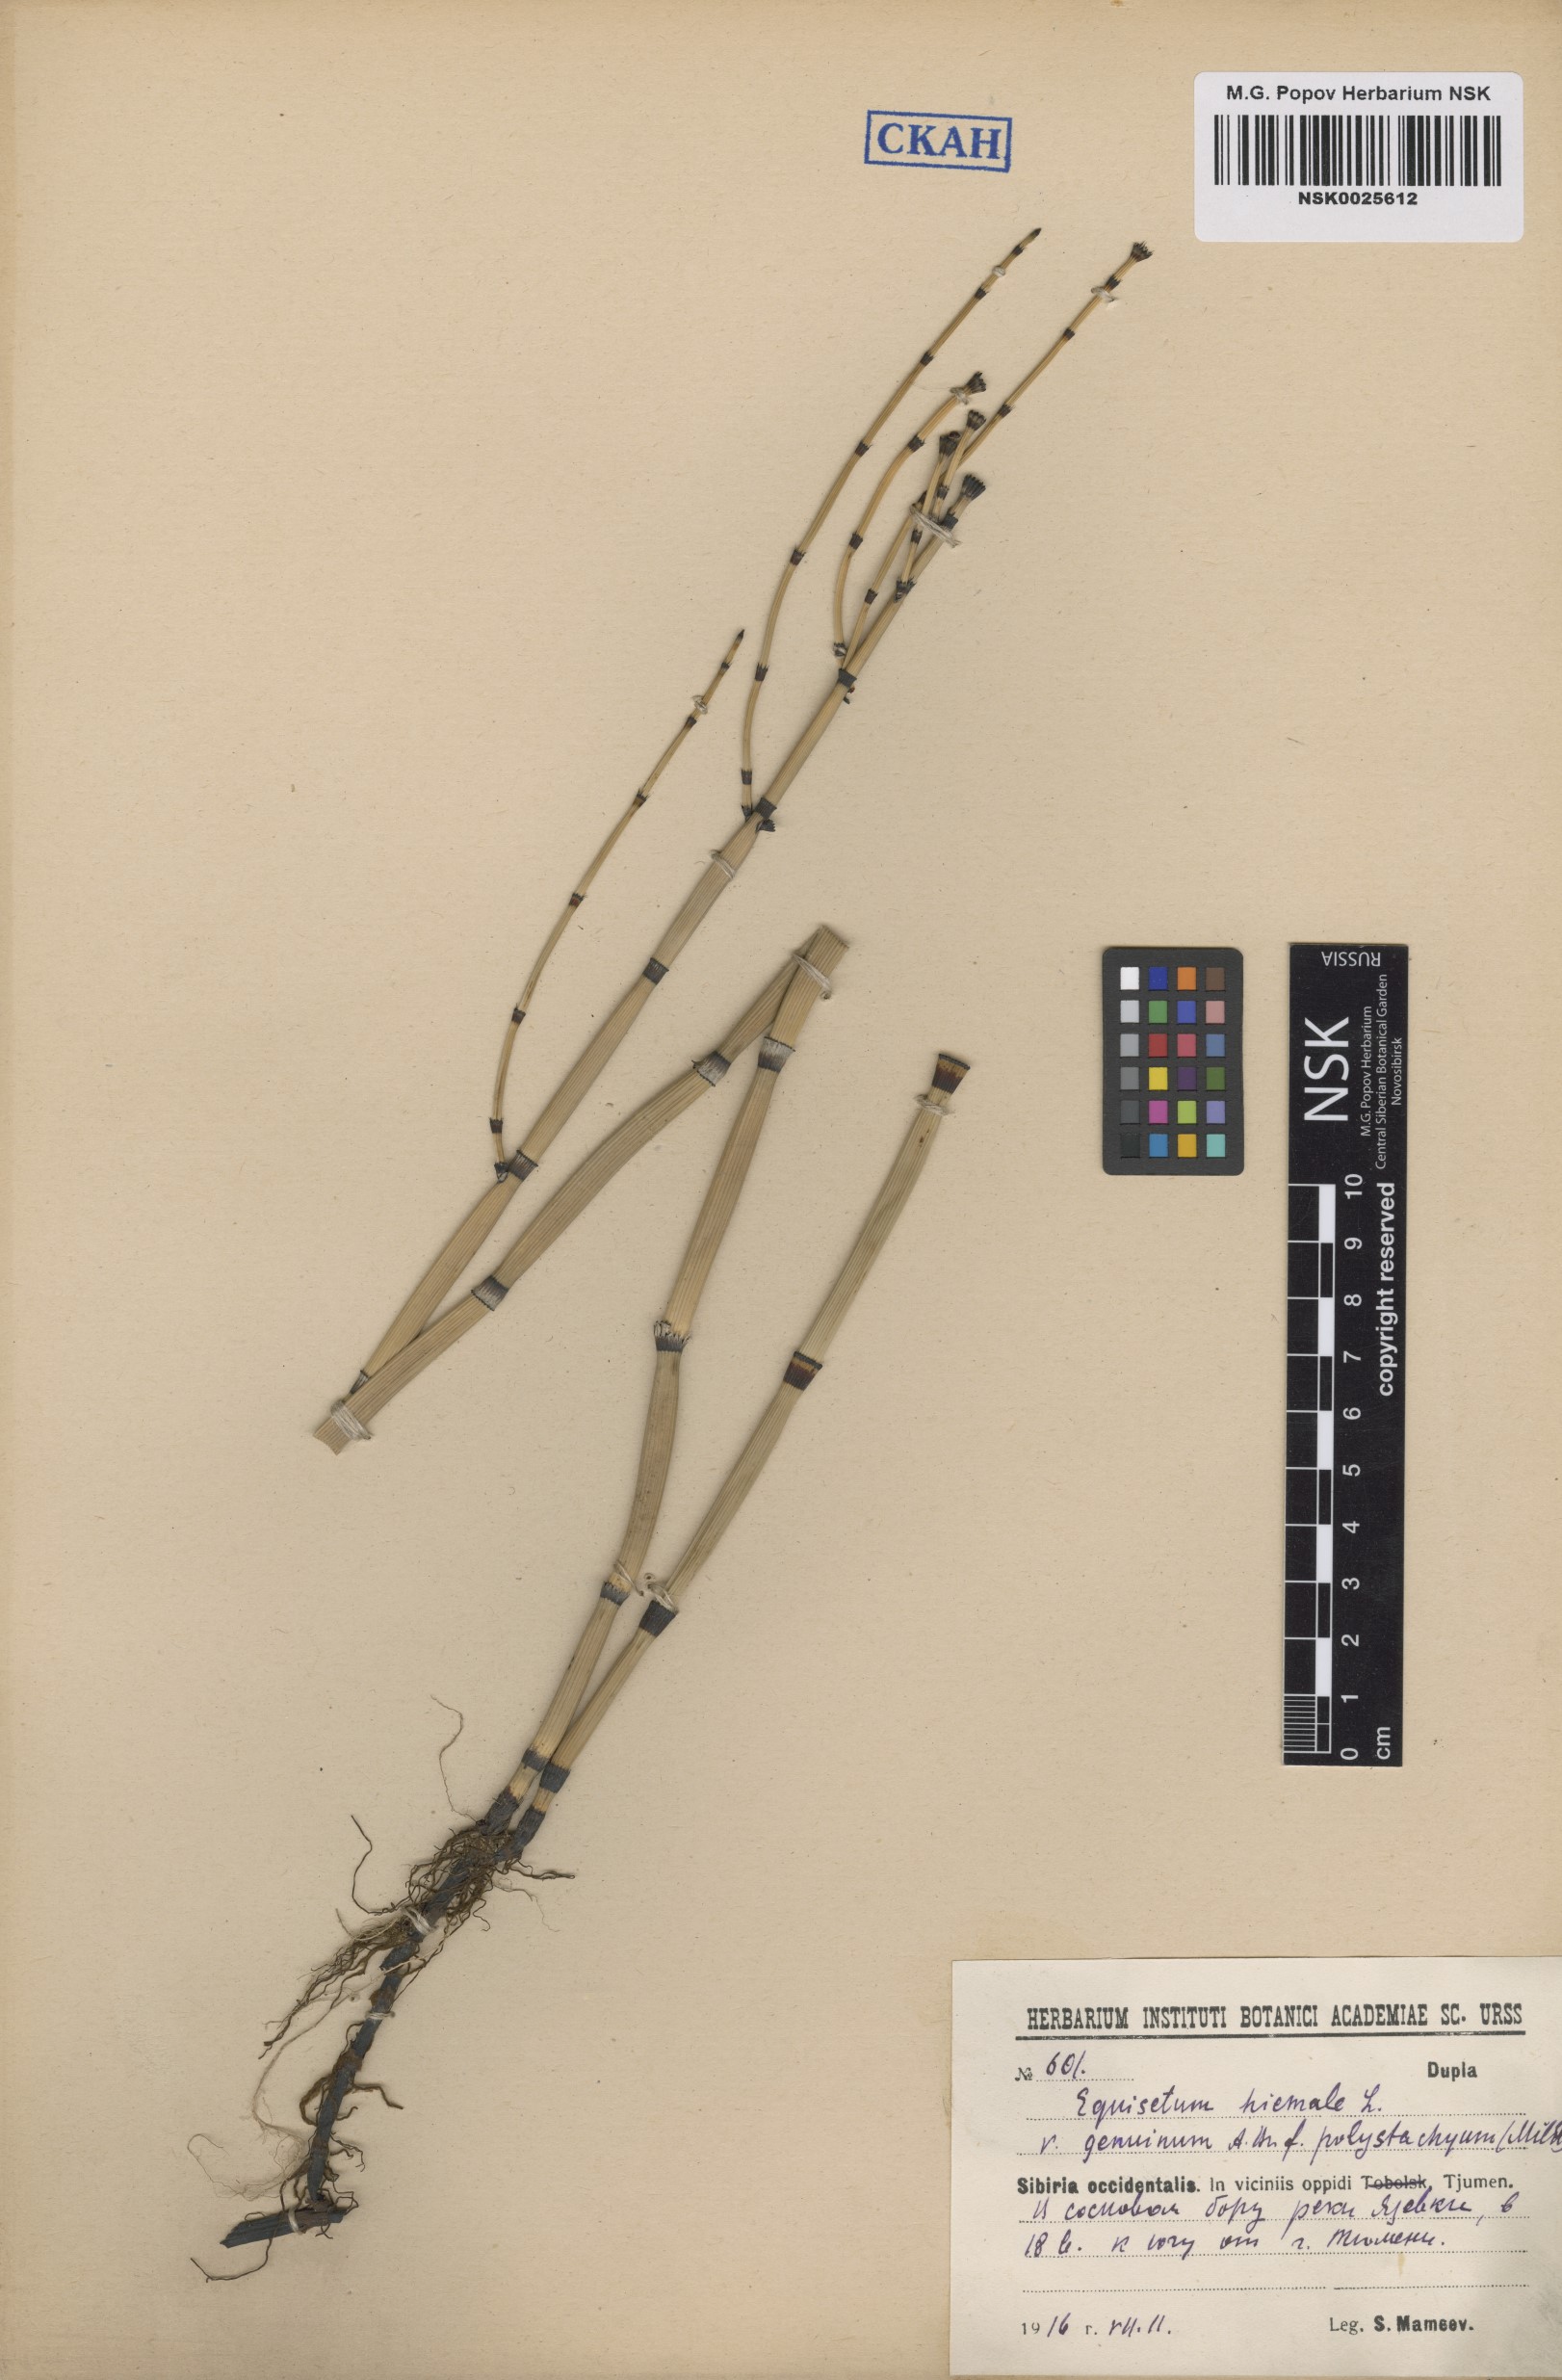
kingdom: Plantae
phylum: Tracheophyta
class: Polypodiopsida
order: Equisetales
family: Equisetaceae
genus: Equisetum
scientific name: Equisetum hyemale
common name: Rough horsetail
